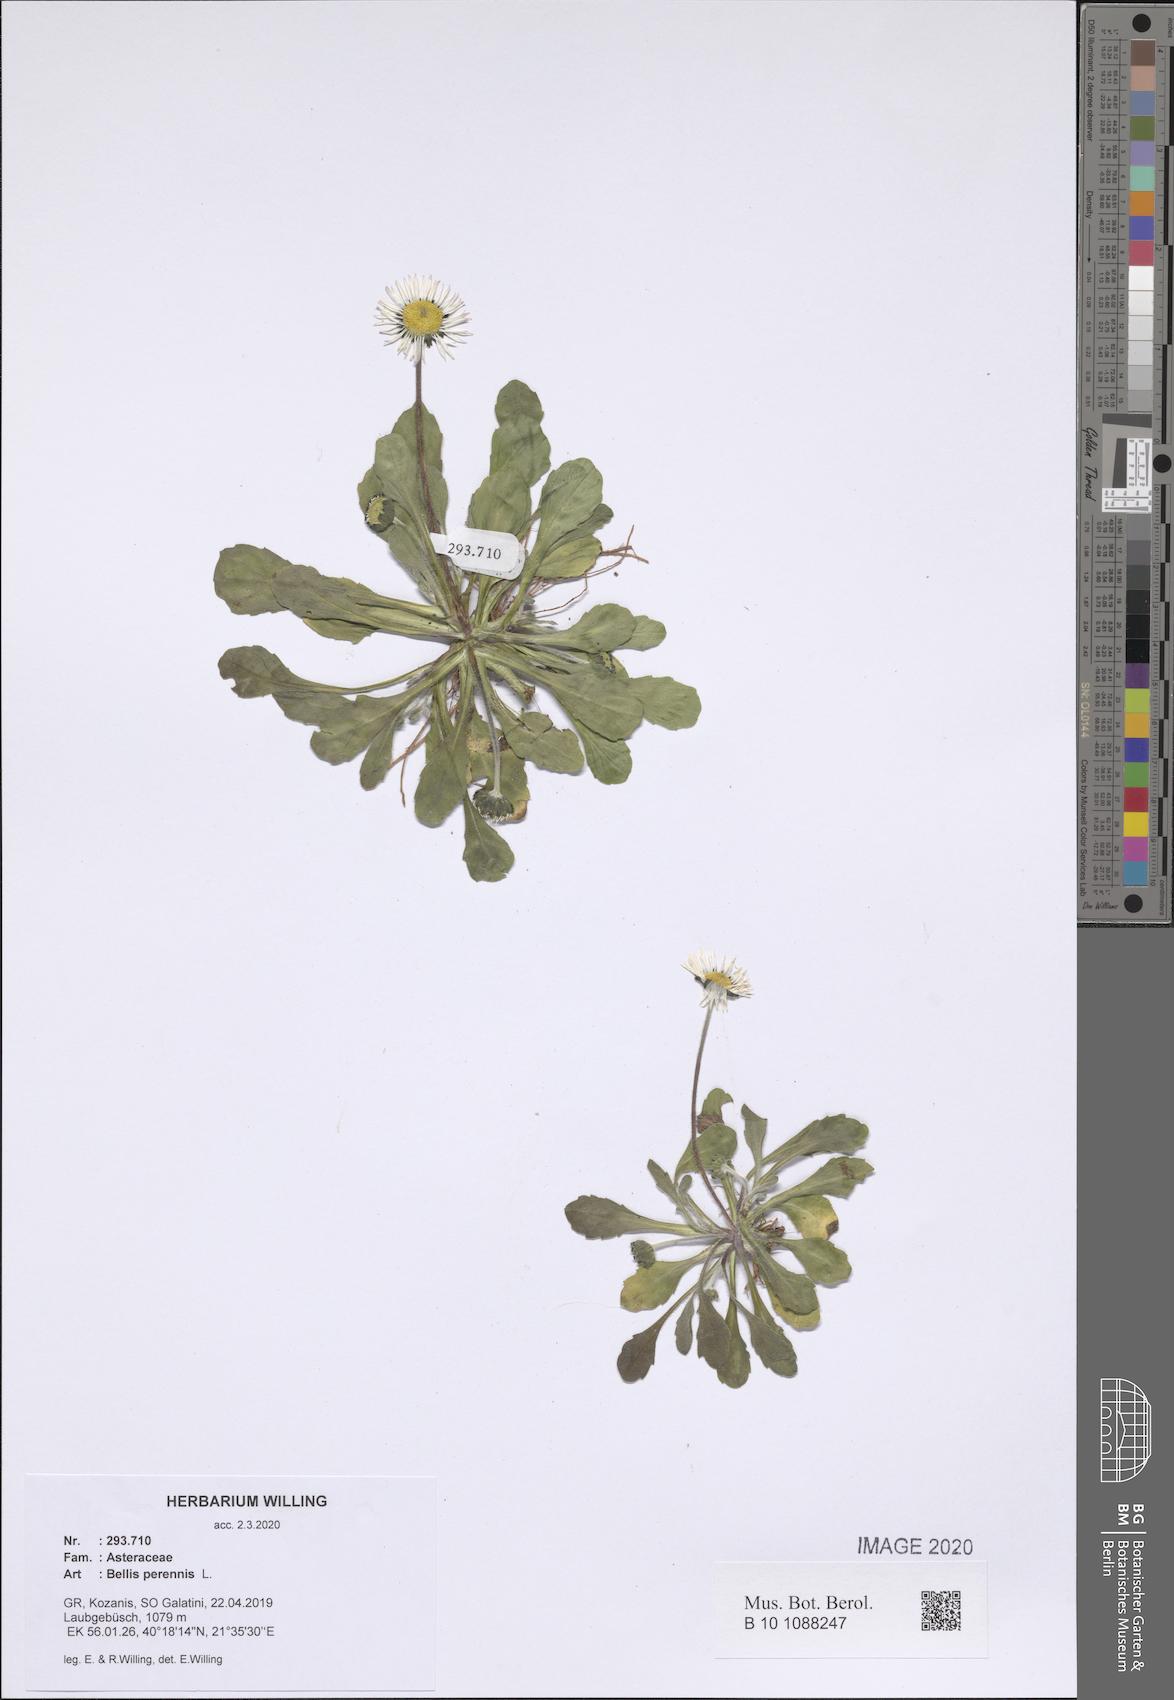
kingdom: Plantae
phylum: Tracheophyta
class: Magnoliopsida
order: Asterales
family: Asteraceae
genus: Bellis
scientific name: Bellis perennis
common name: Lawndaisy
